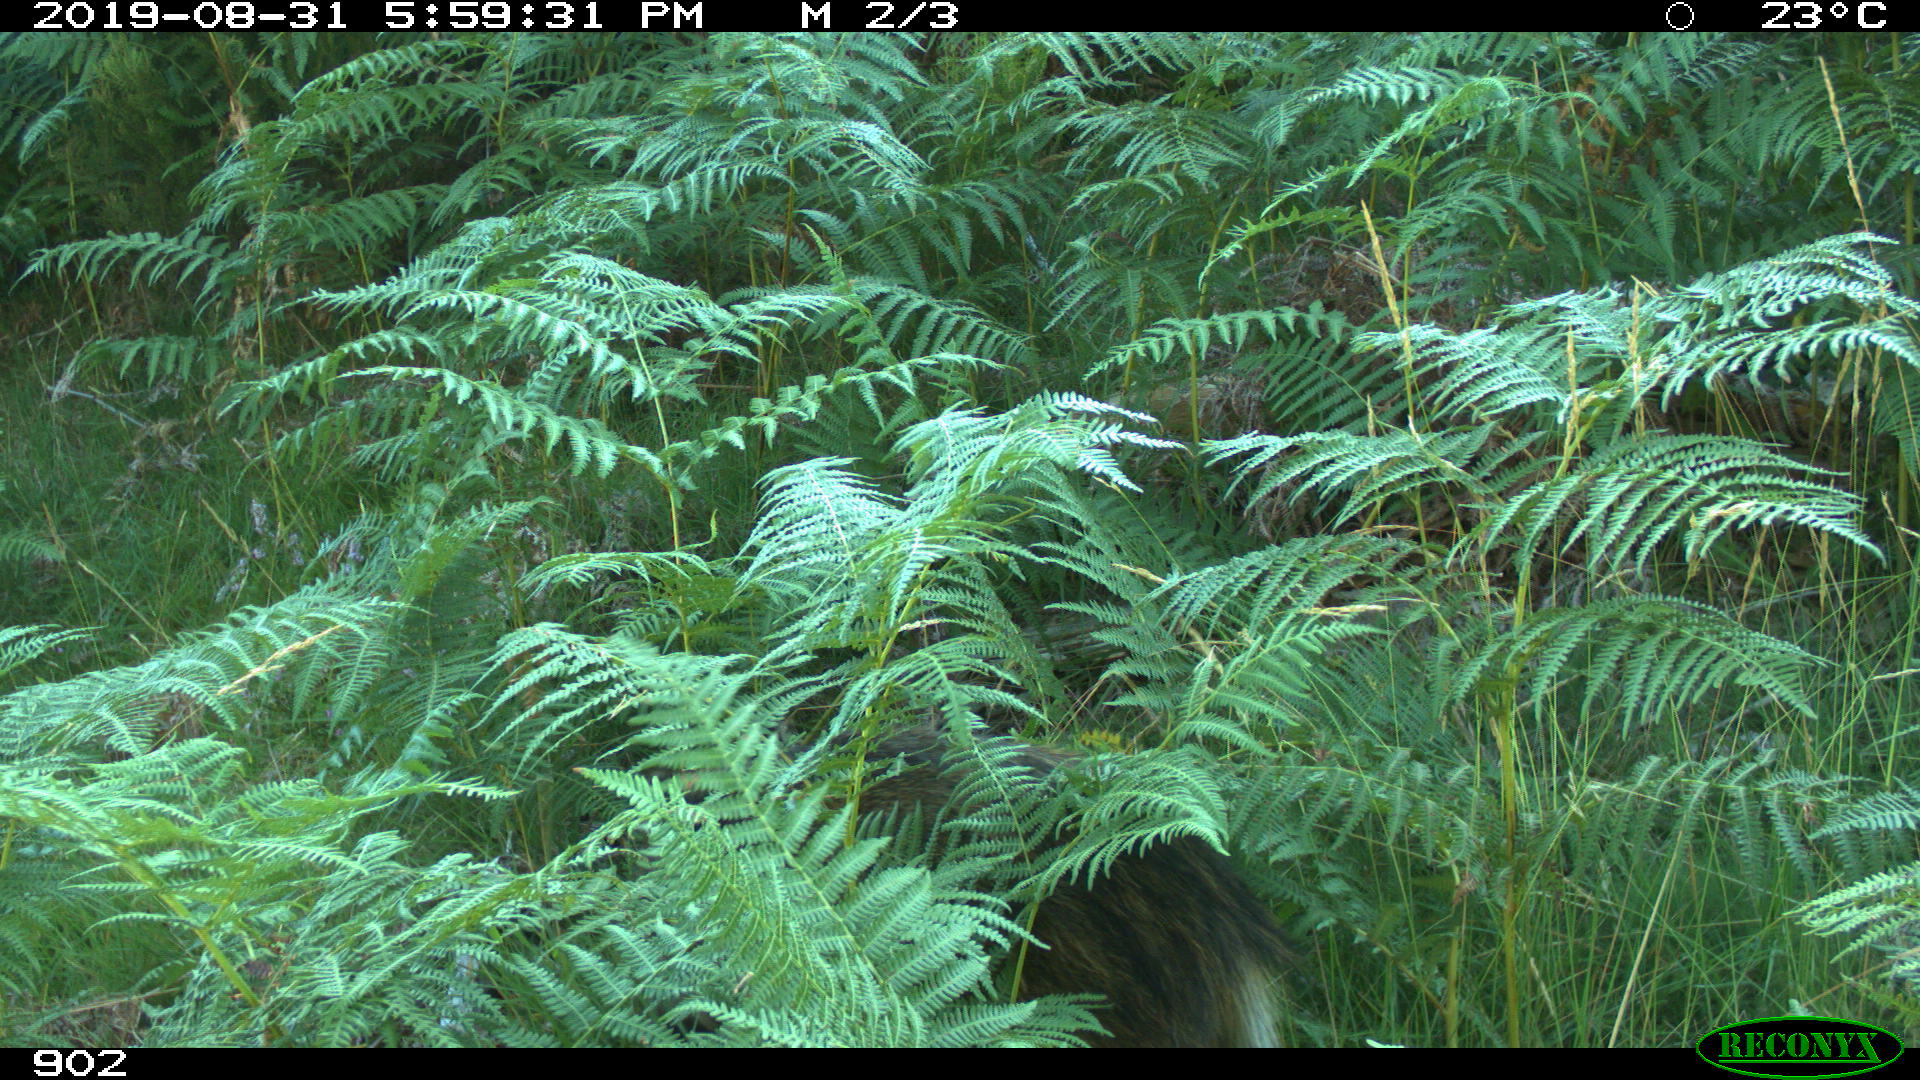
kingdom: Animalia
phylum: Chordata
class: Mammalia
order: Artiodactyla
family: Suidae
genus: Sus
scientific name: Sus scrofa
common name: Wild boar
